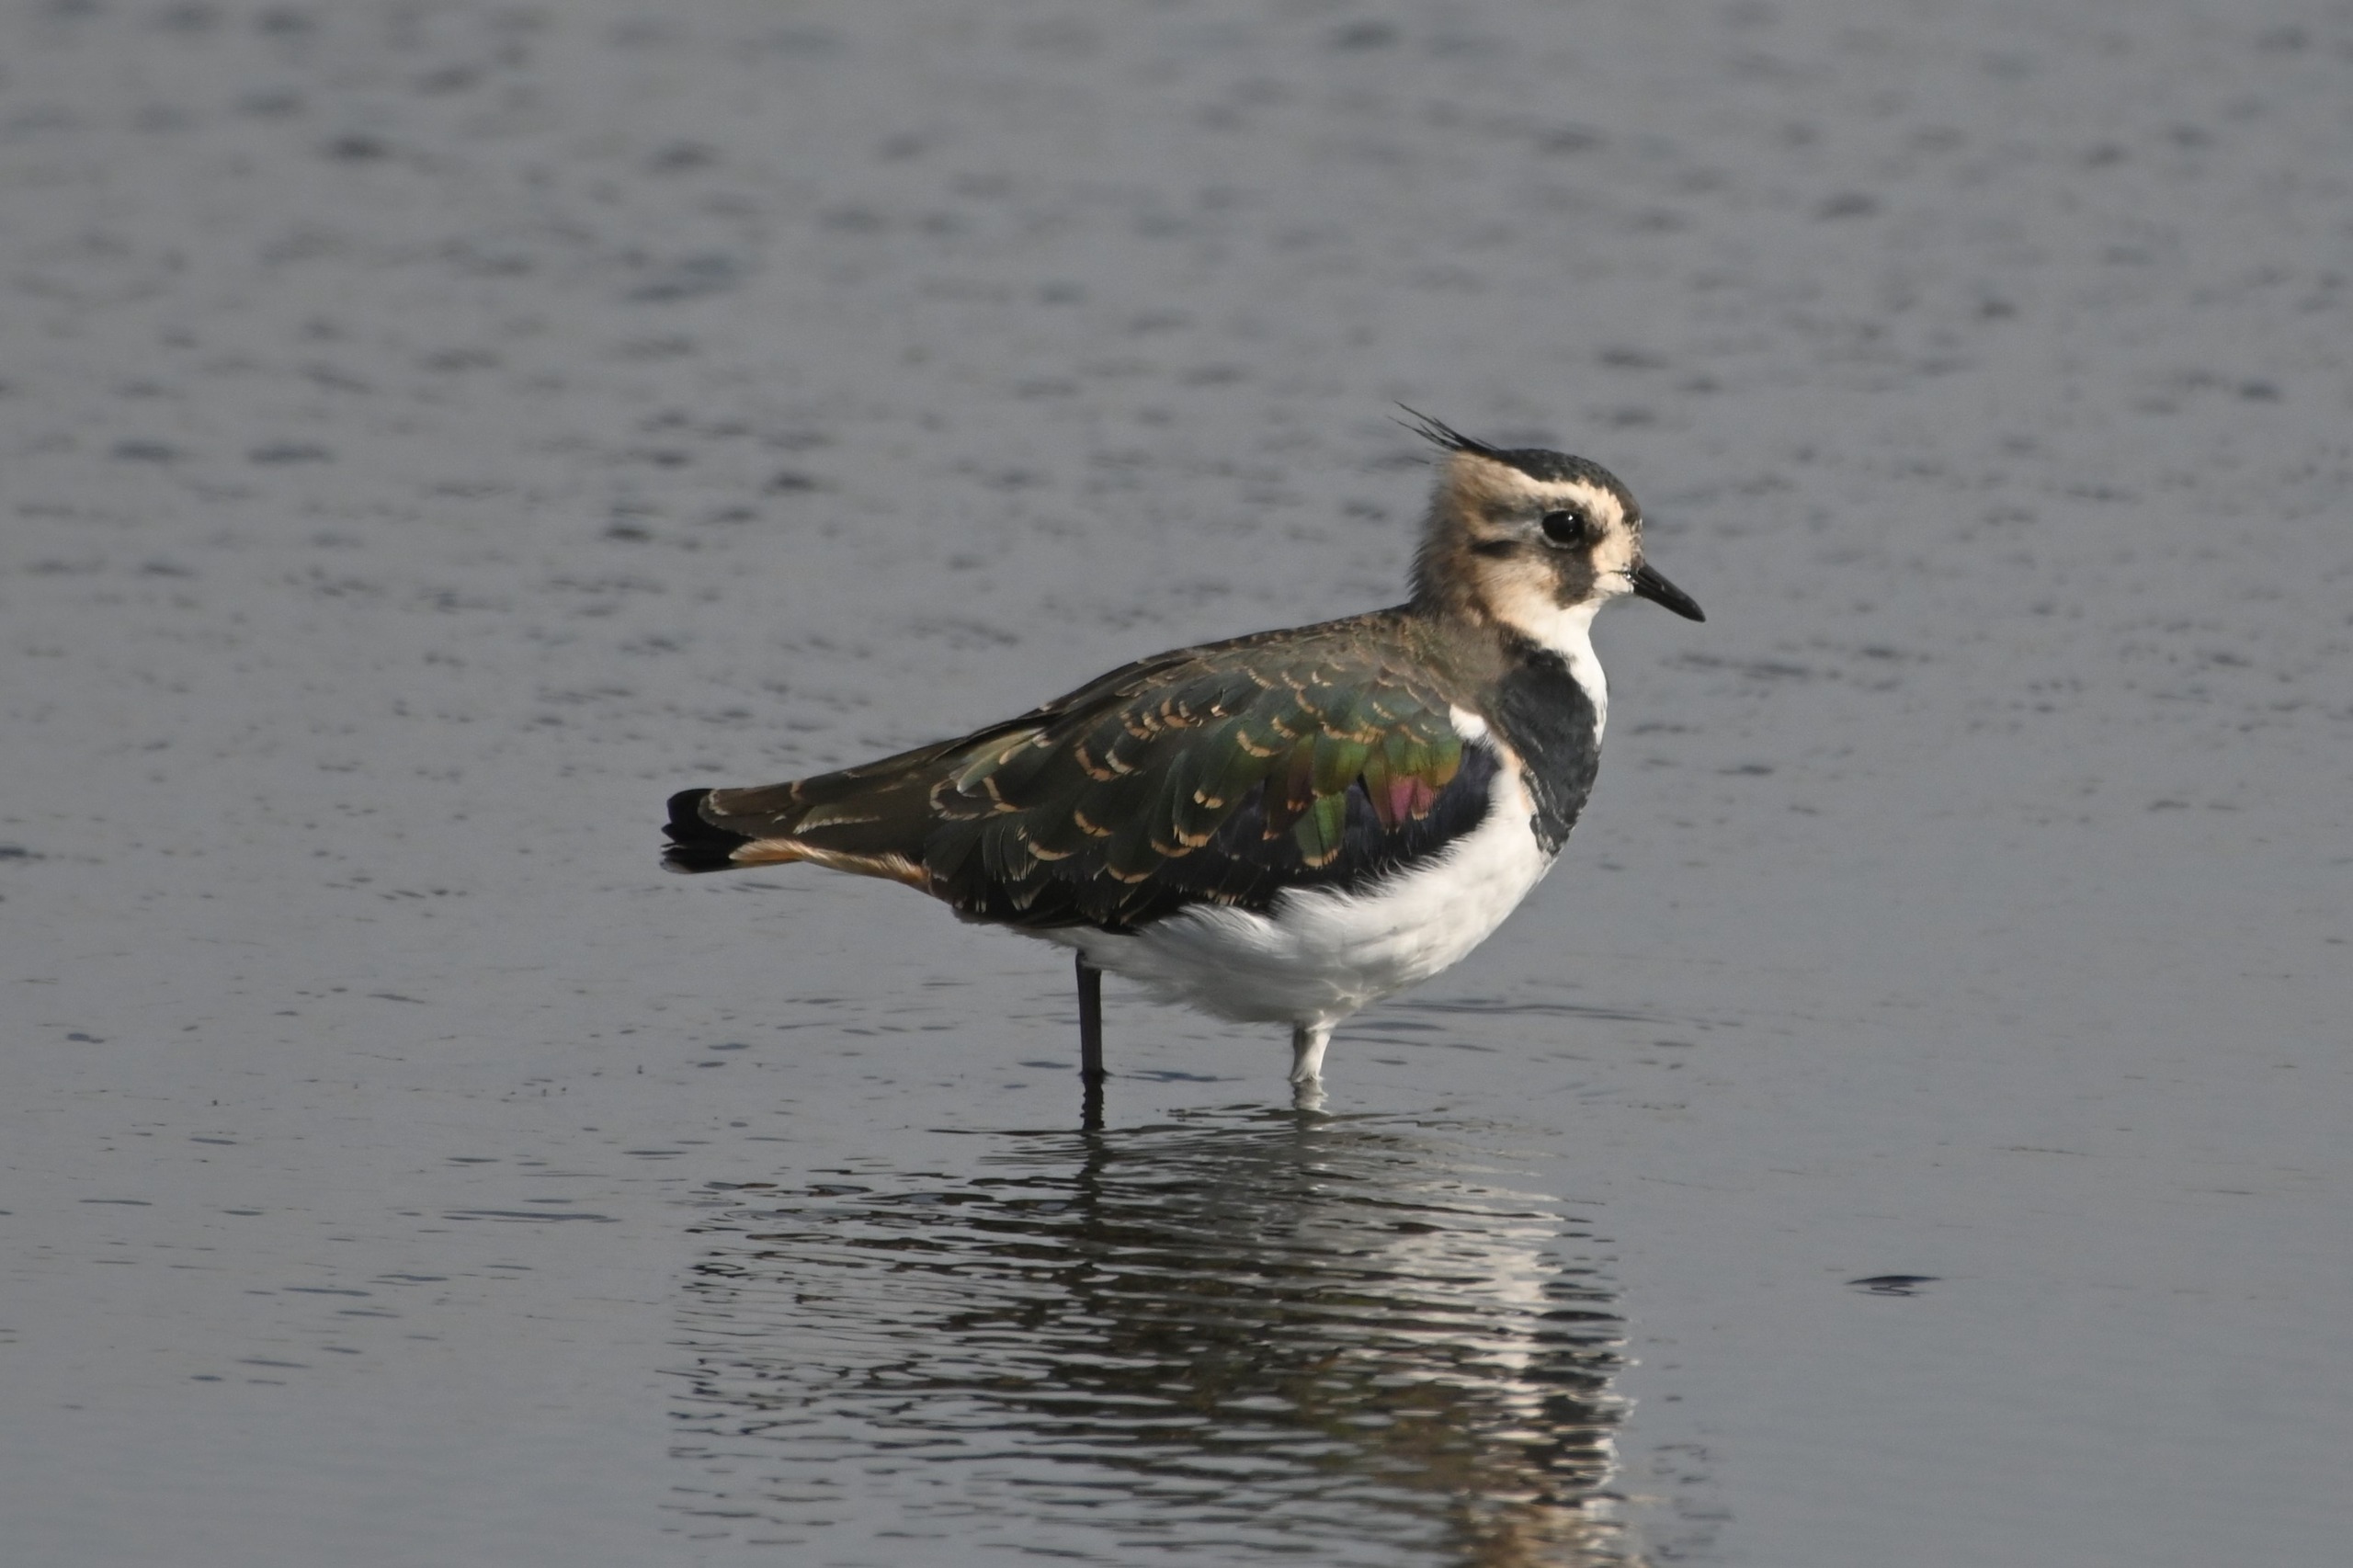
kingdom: Animalia
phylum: Chordata
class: Aves
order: Charadriiformes
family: Charadriidae
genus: Vanellus
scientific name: Vanellus vanellus
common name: Vibe
